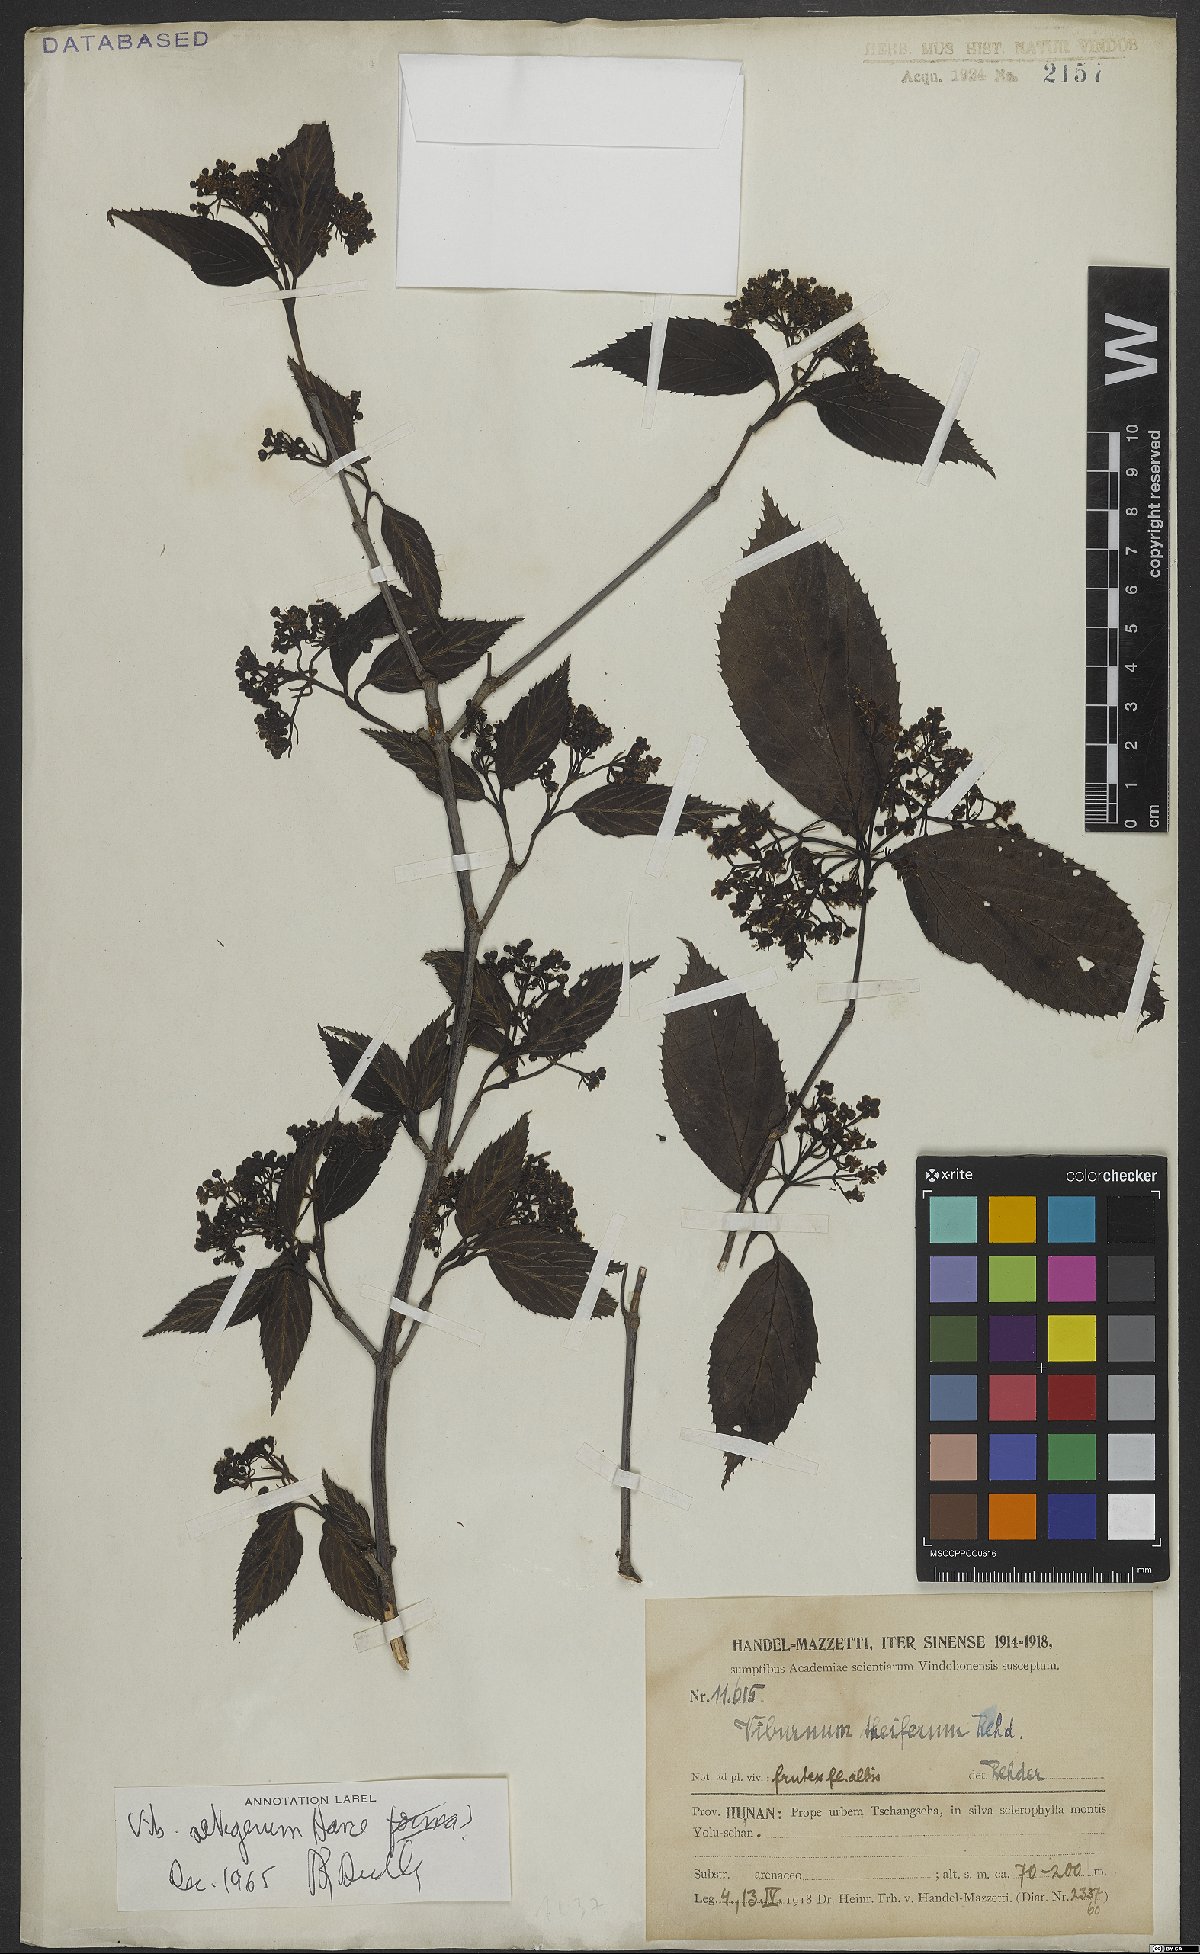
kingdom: Plantae
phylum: Tracheophyta
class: Magnoliopsida
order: Dipsacales
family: Viburnaceae
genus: Viburnum
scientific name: Viburnum setigerum
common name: Tea viburnum
